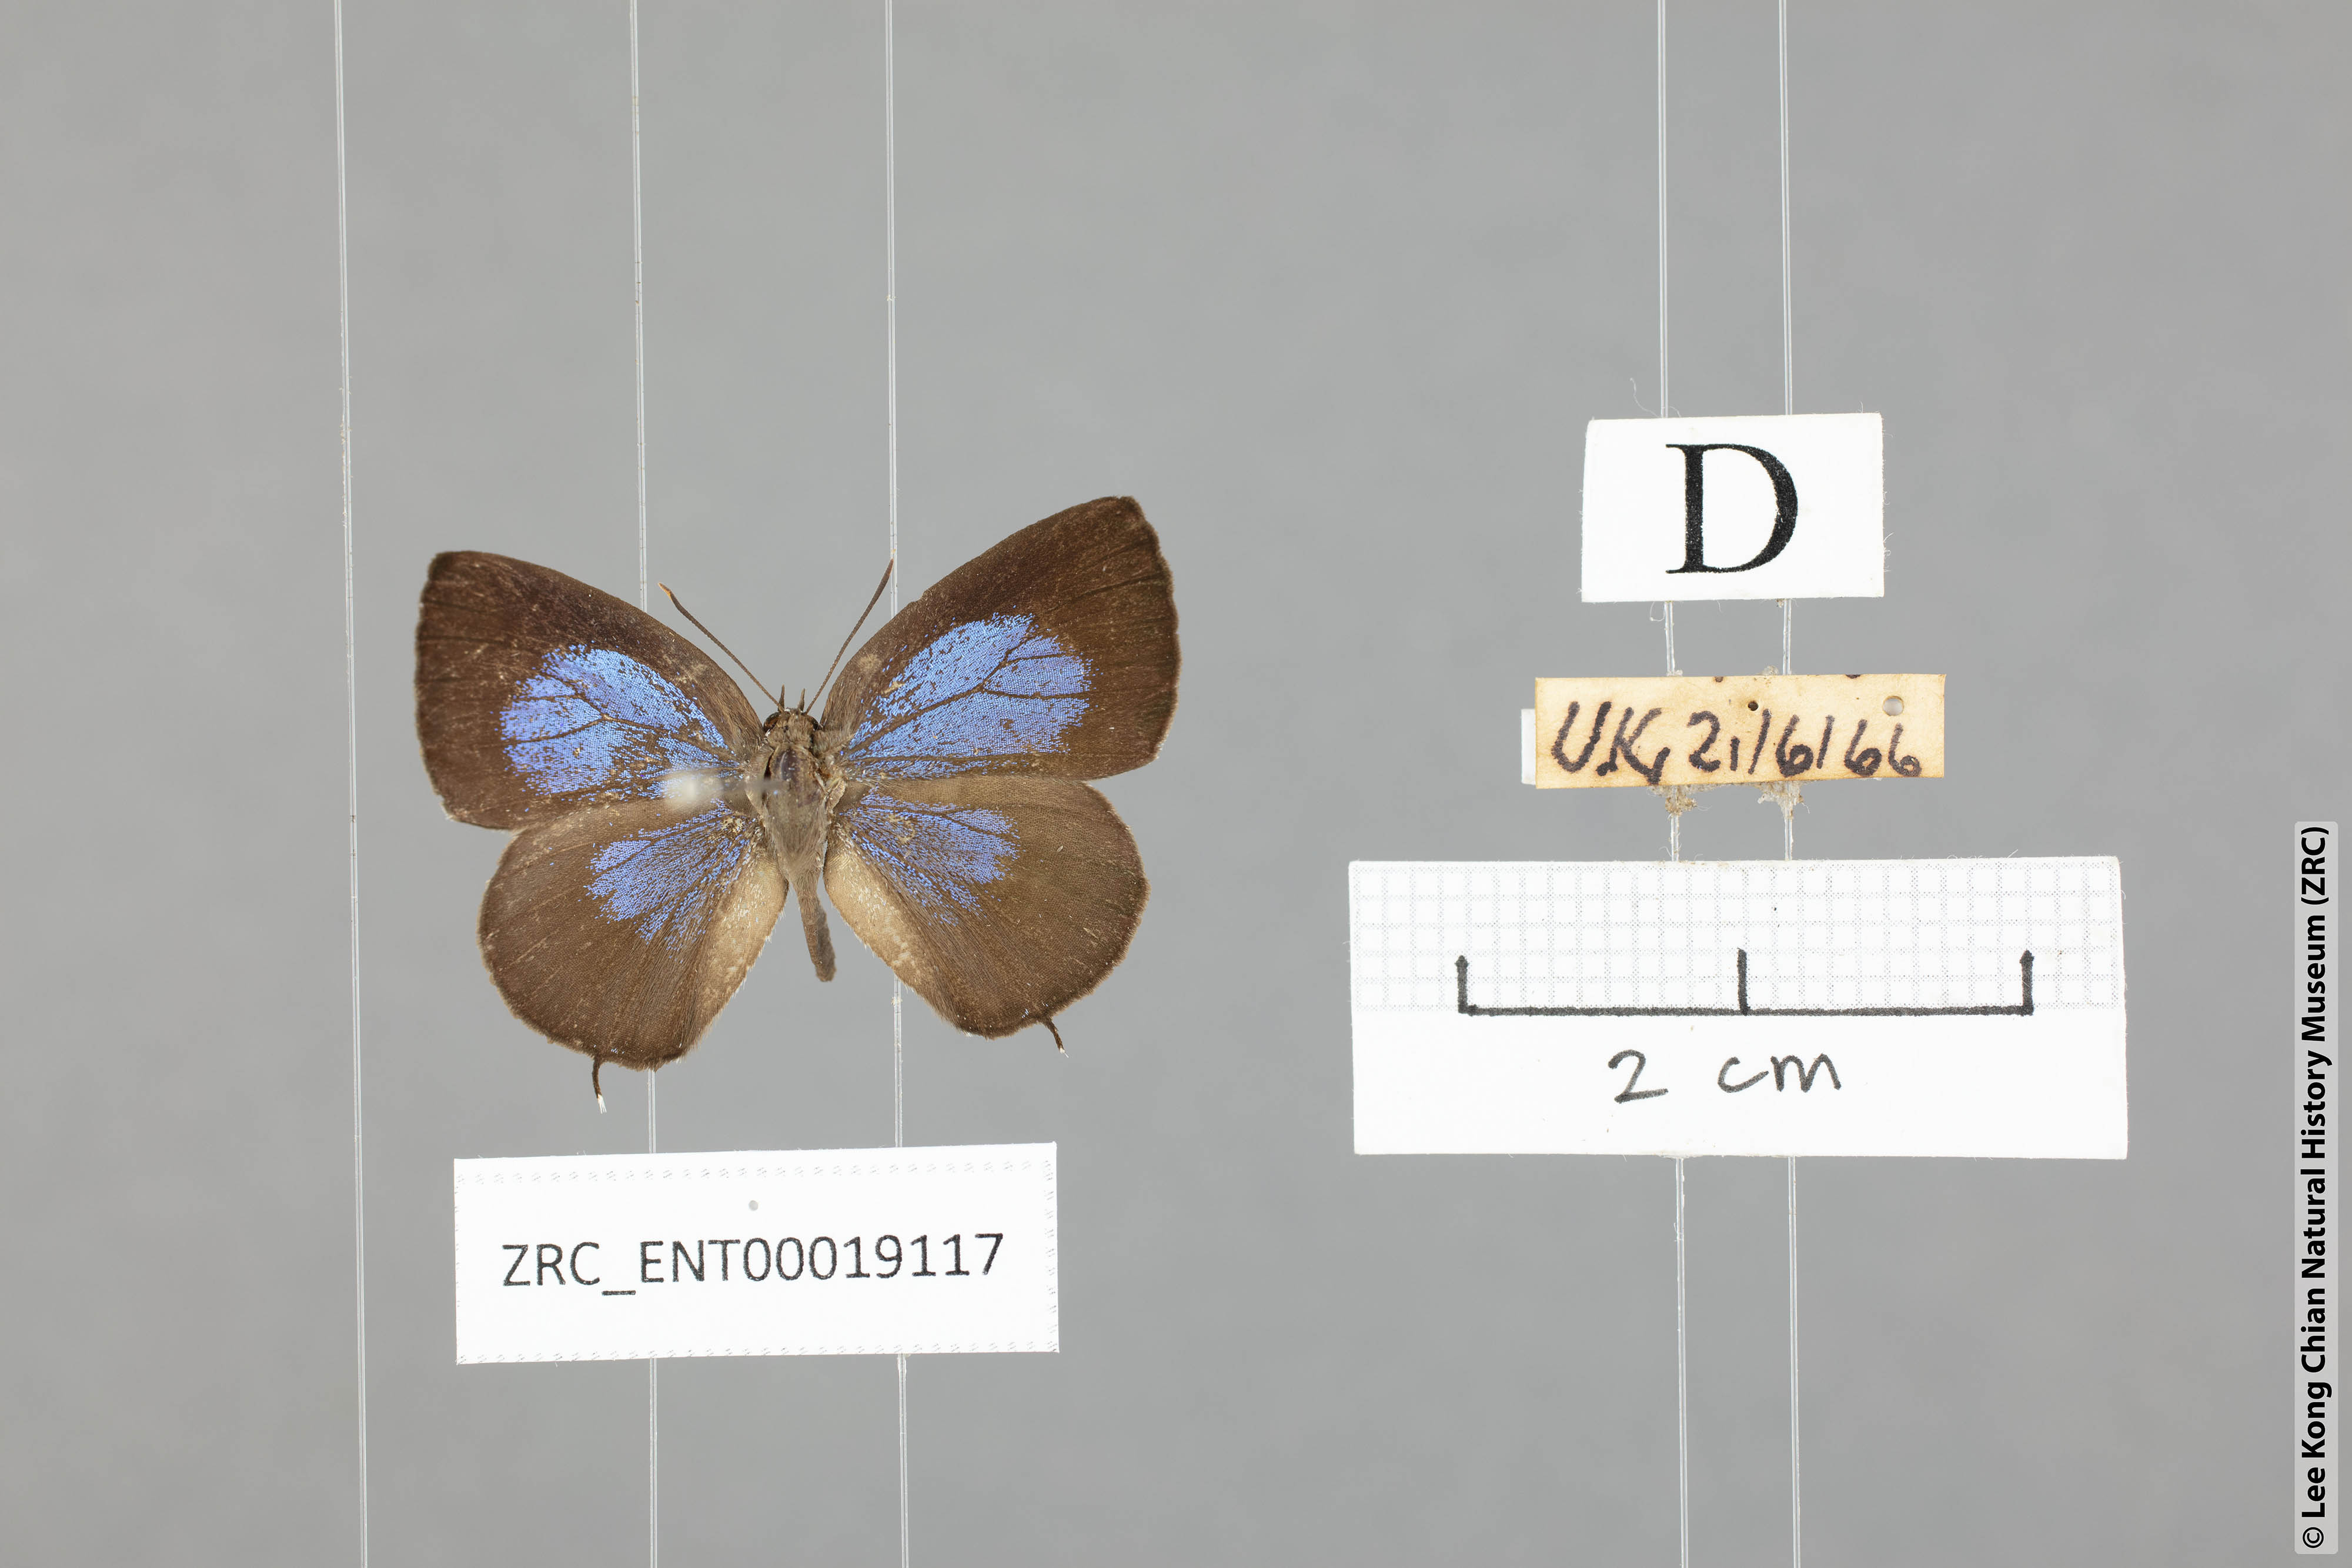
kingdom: Animalia
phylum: Arthropoda
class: Insecta
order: Lepidoptera
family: Lycaenidae
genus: Arhopala
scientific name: Arhopala ammonides
